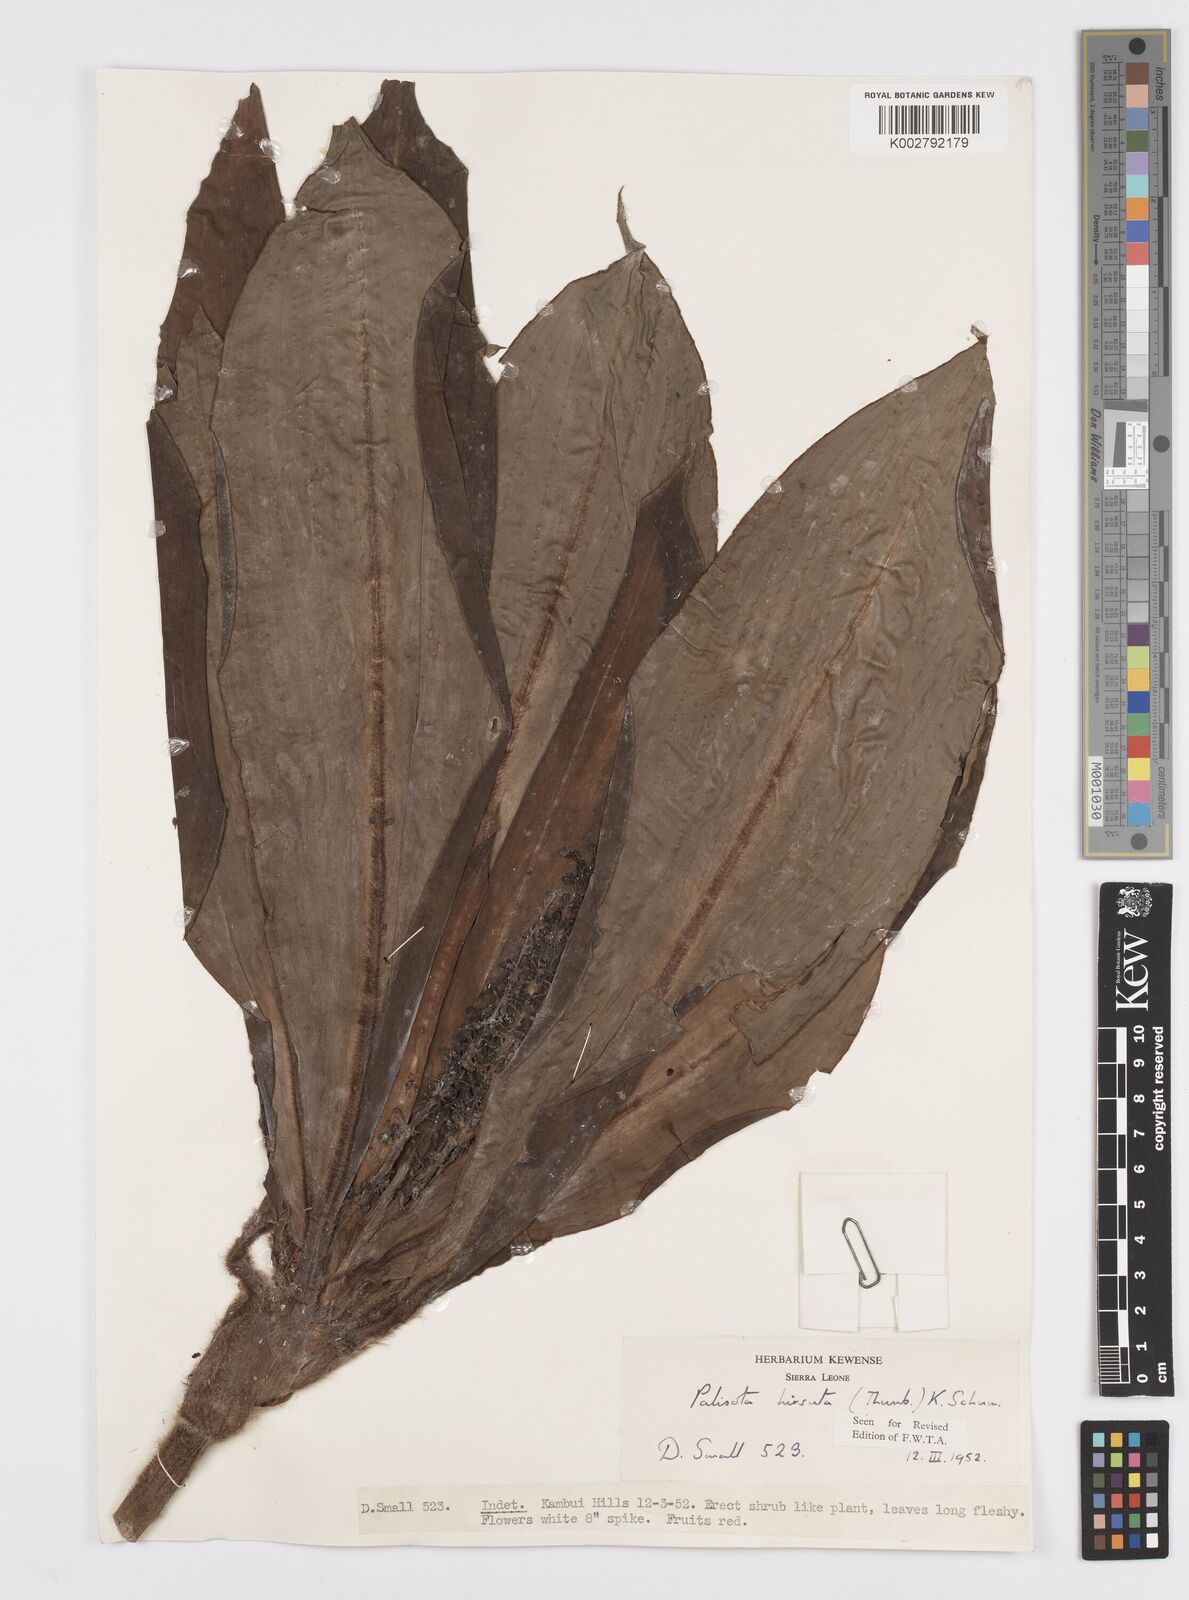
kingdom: Plantae
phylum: Tracheophyta
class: Liliopsida
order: Commelinales
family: Commelinaceae
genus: Palisota
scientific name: Palisota hirsuta
